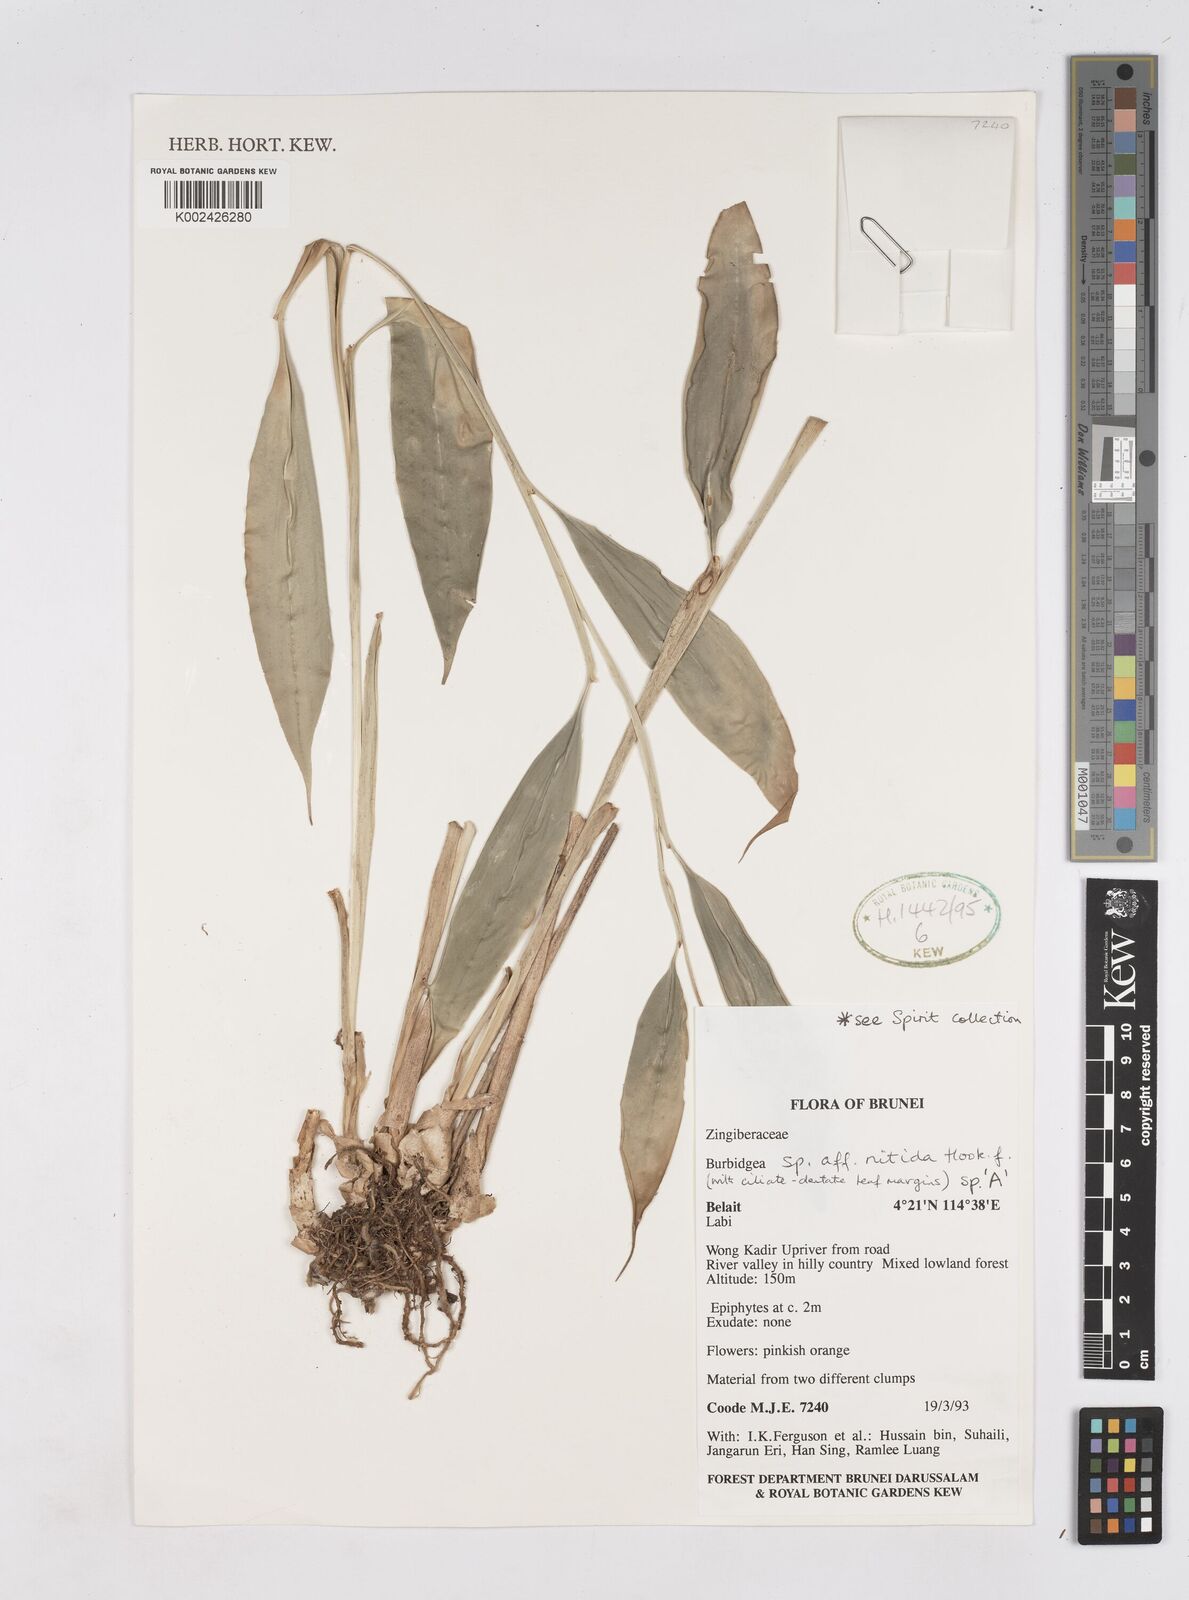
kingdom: Plantae
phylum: Tracheophyta
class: Liliopsida
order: Zingiberales
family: Zingiberaceae
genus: Burbidgea
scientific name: Burbidgea nitida
